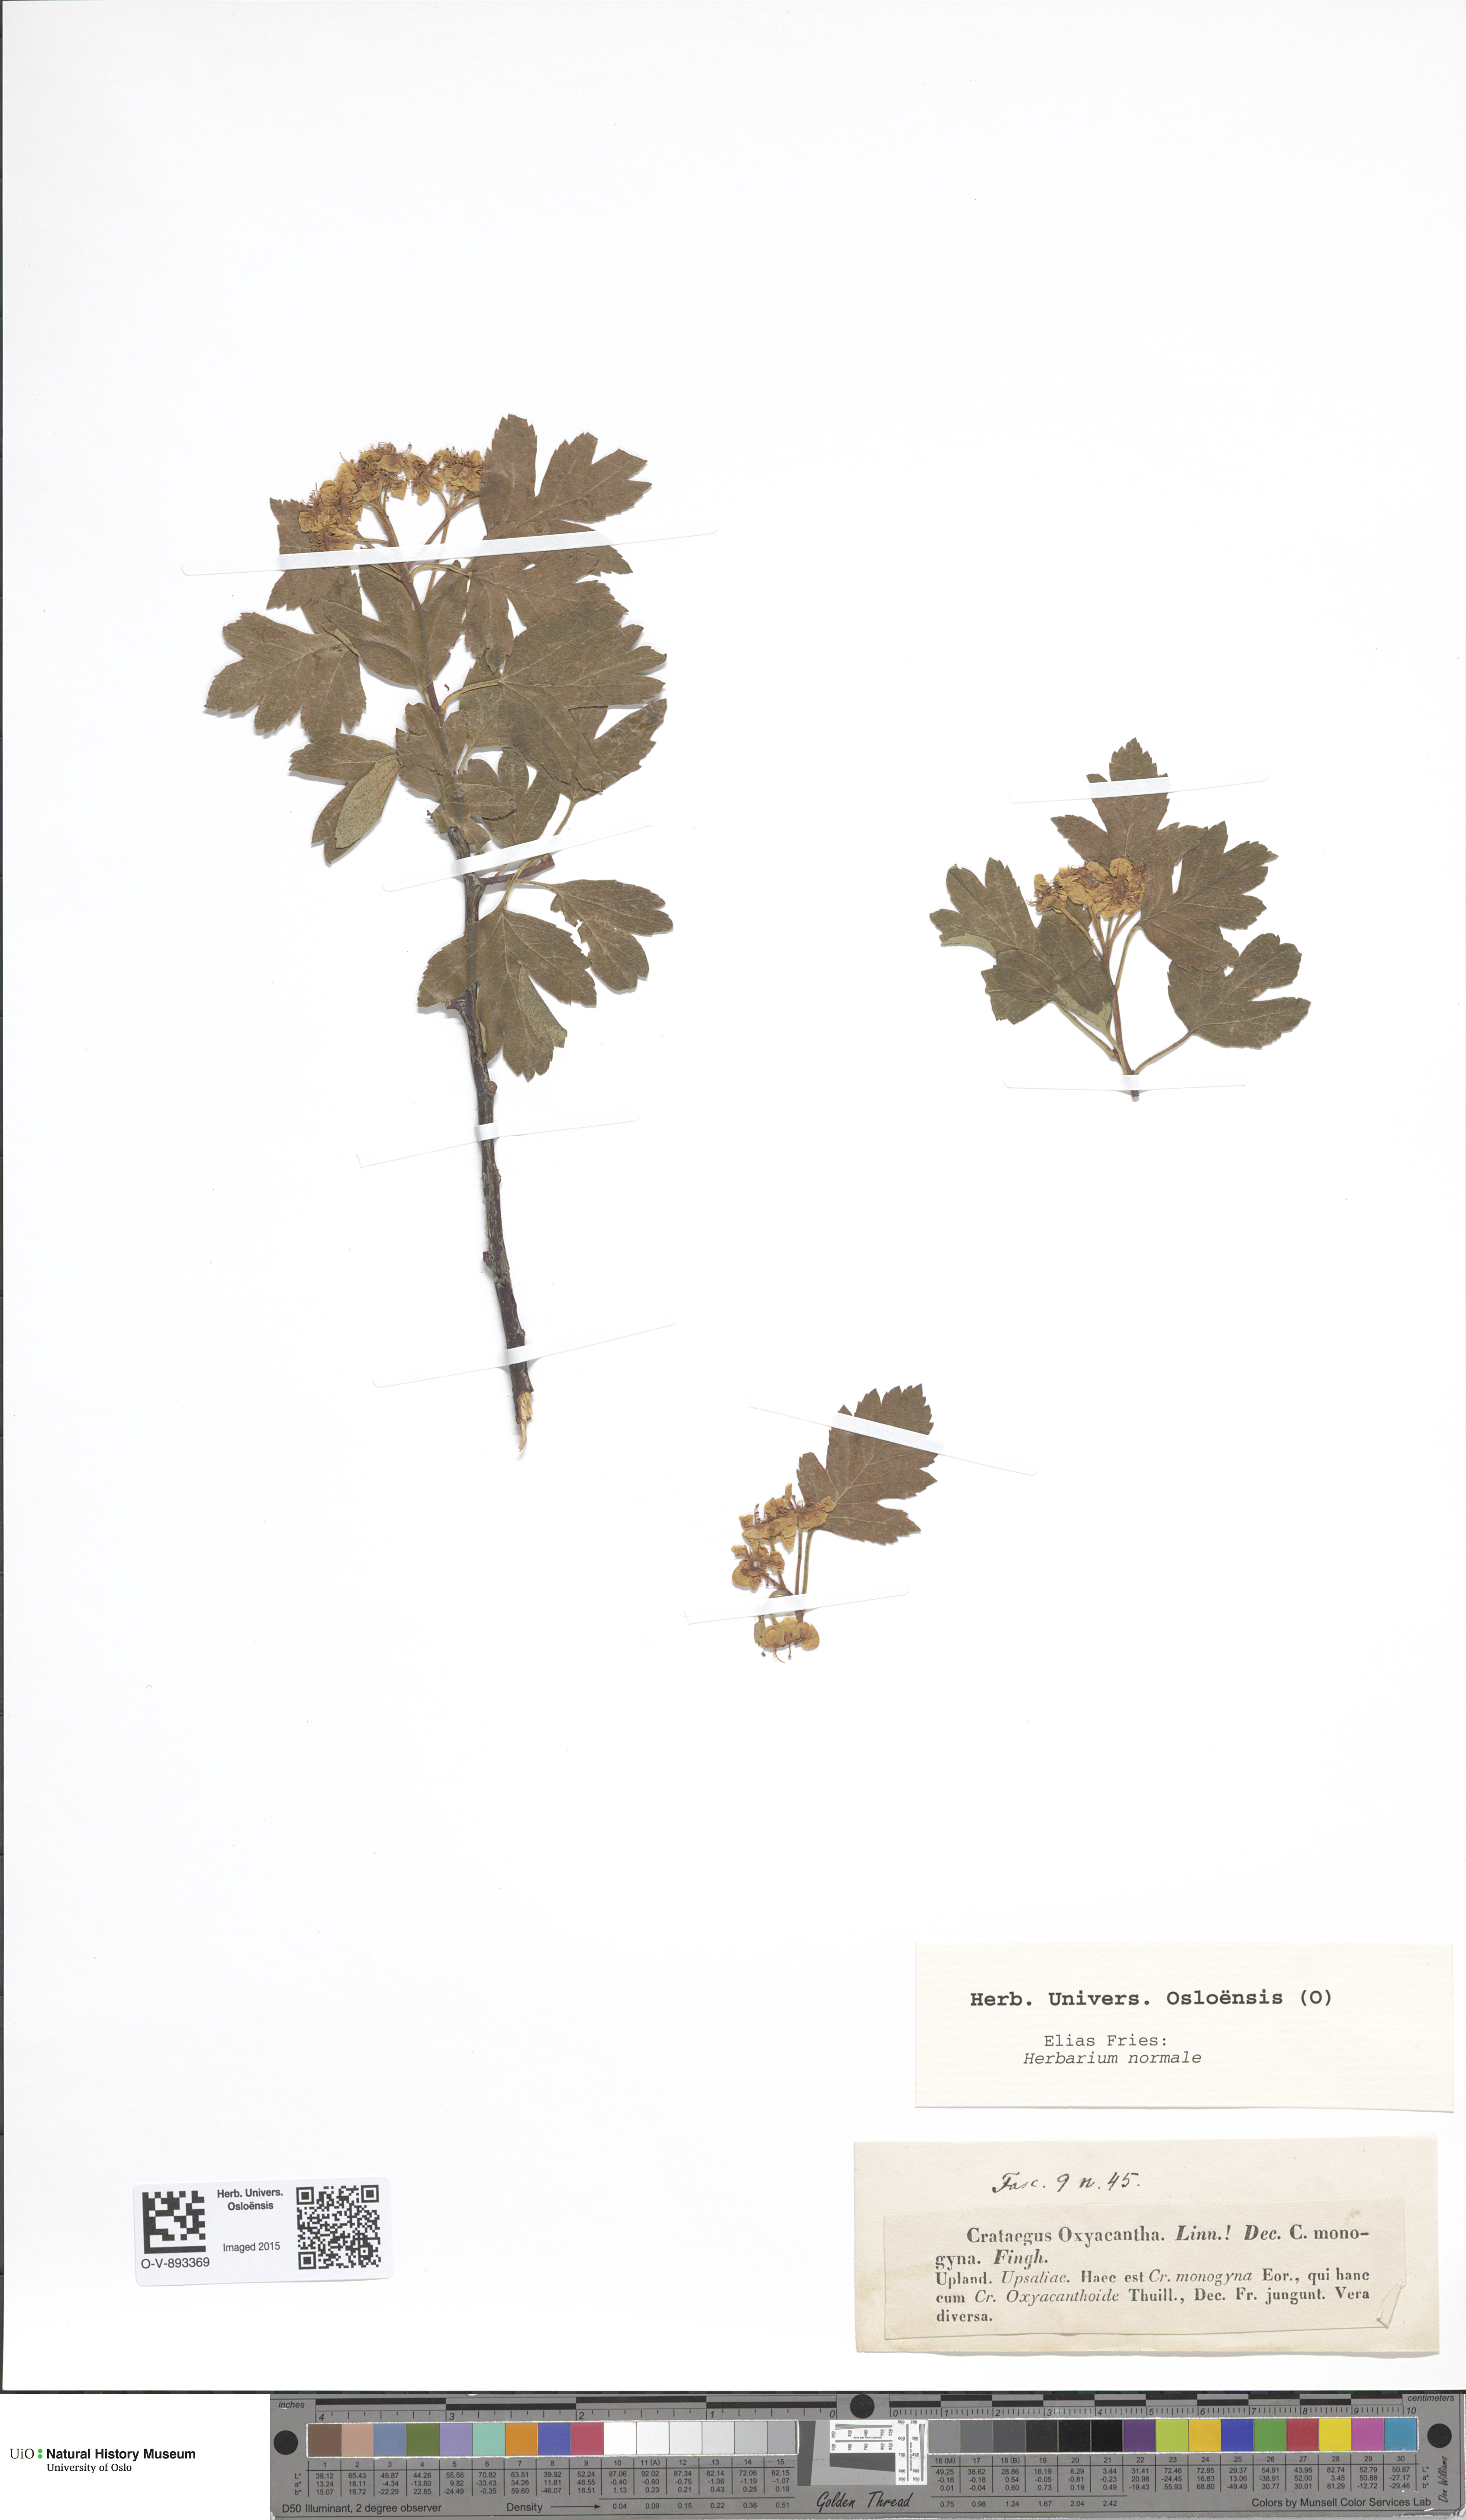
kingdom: Plantae
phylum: Tracheophyta
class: Magnoliopsida
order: Rosales
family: Rosaceae
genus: Crataegus
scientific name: Crataegus rhipidophylla
